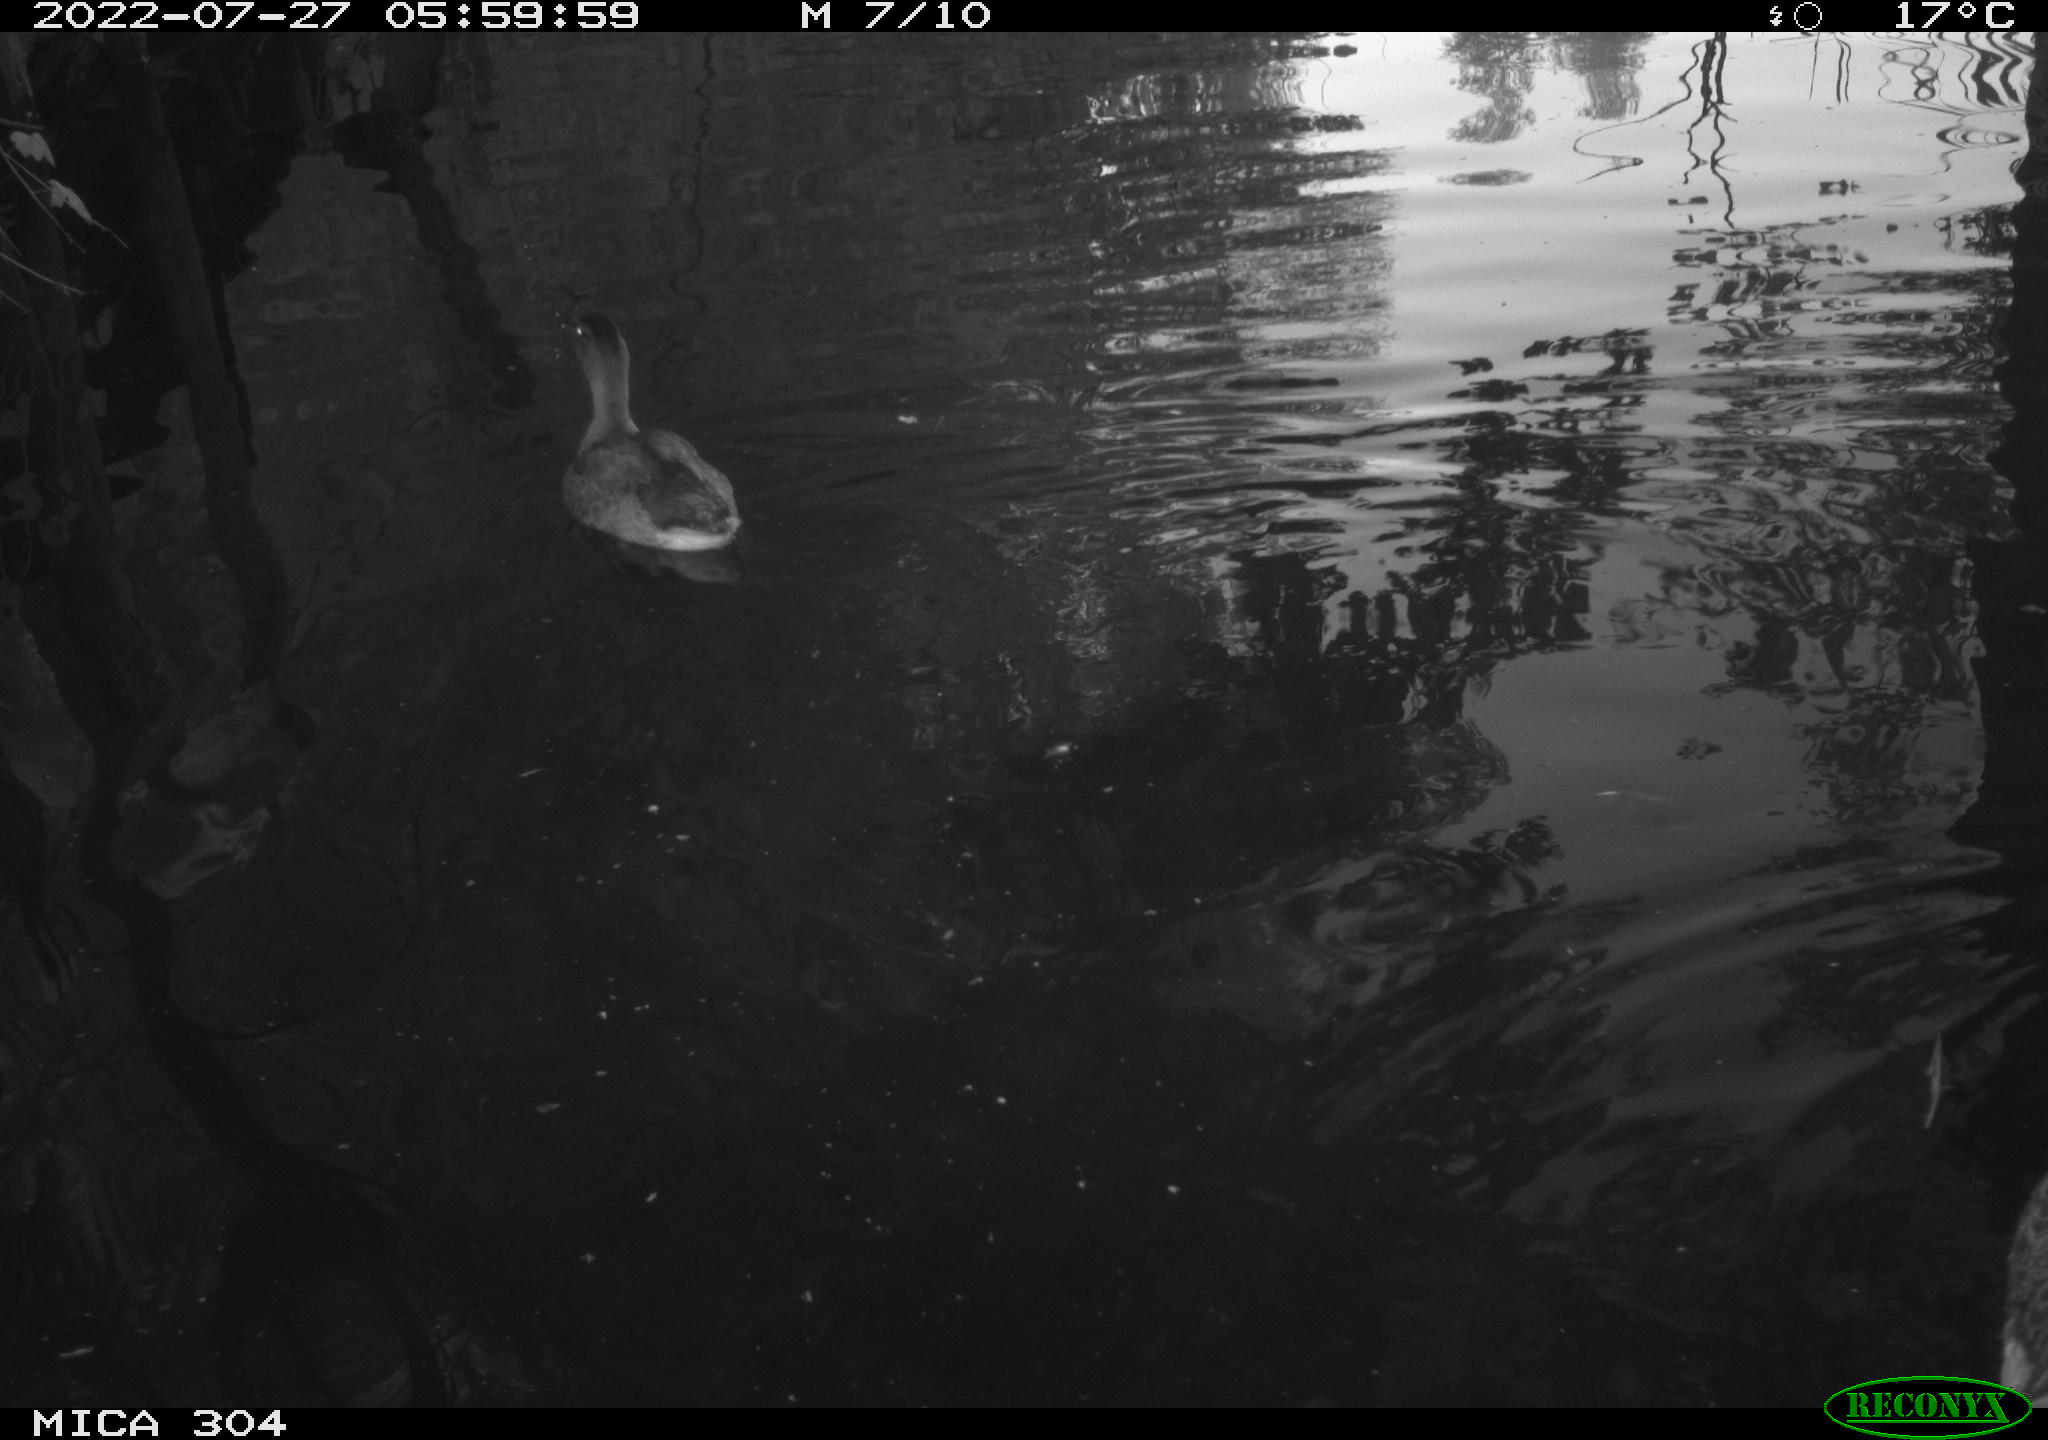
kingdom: Animalia
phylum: Chordata
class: Aves
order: Anseriformes
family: Anatidae
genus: Anas
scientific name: Anas platyrhynchos
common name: Mallard
